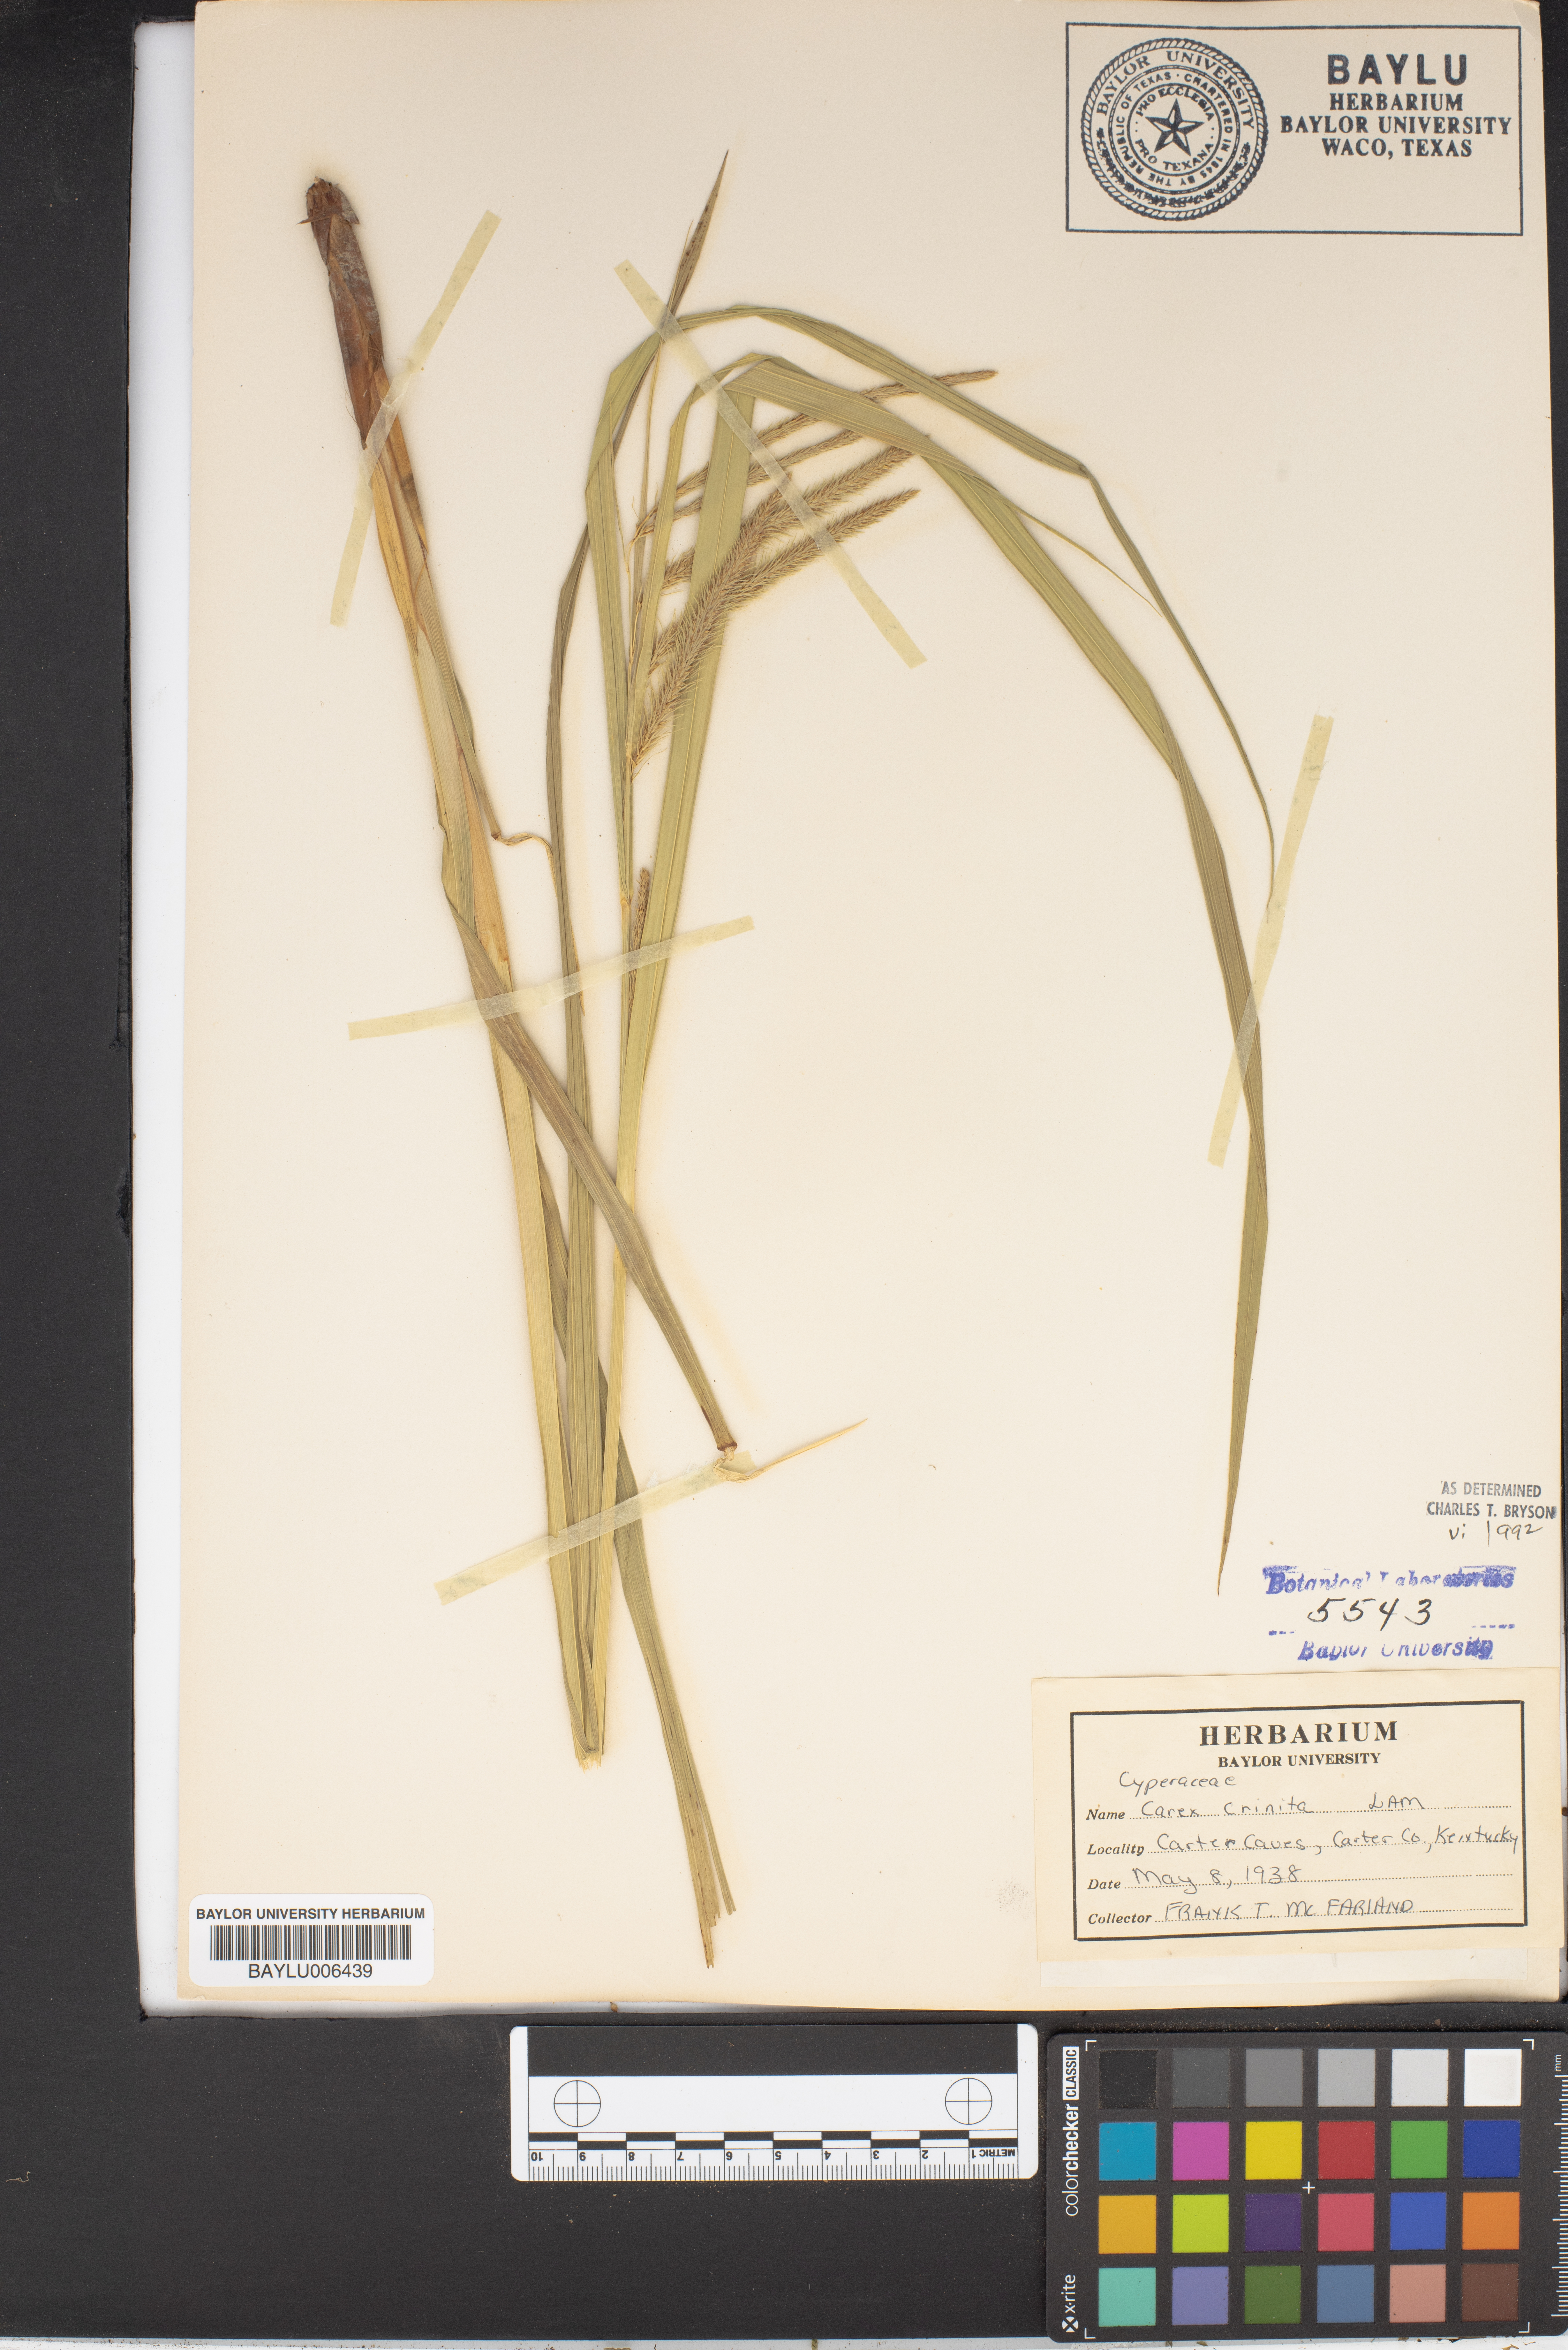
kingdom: Plantae
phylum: Tracheophyta
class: Liliopsida
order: Poales
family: Cyperaceae
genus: Carex
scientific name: Carex crinita
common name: Fringed sedge
